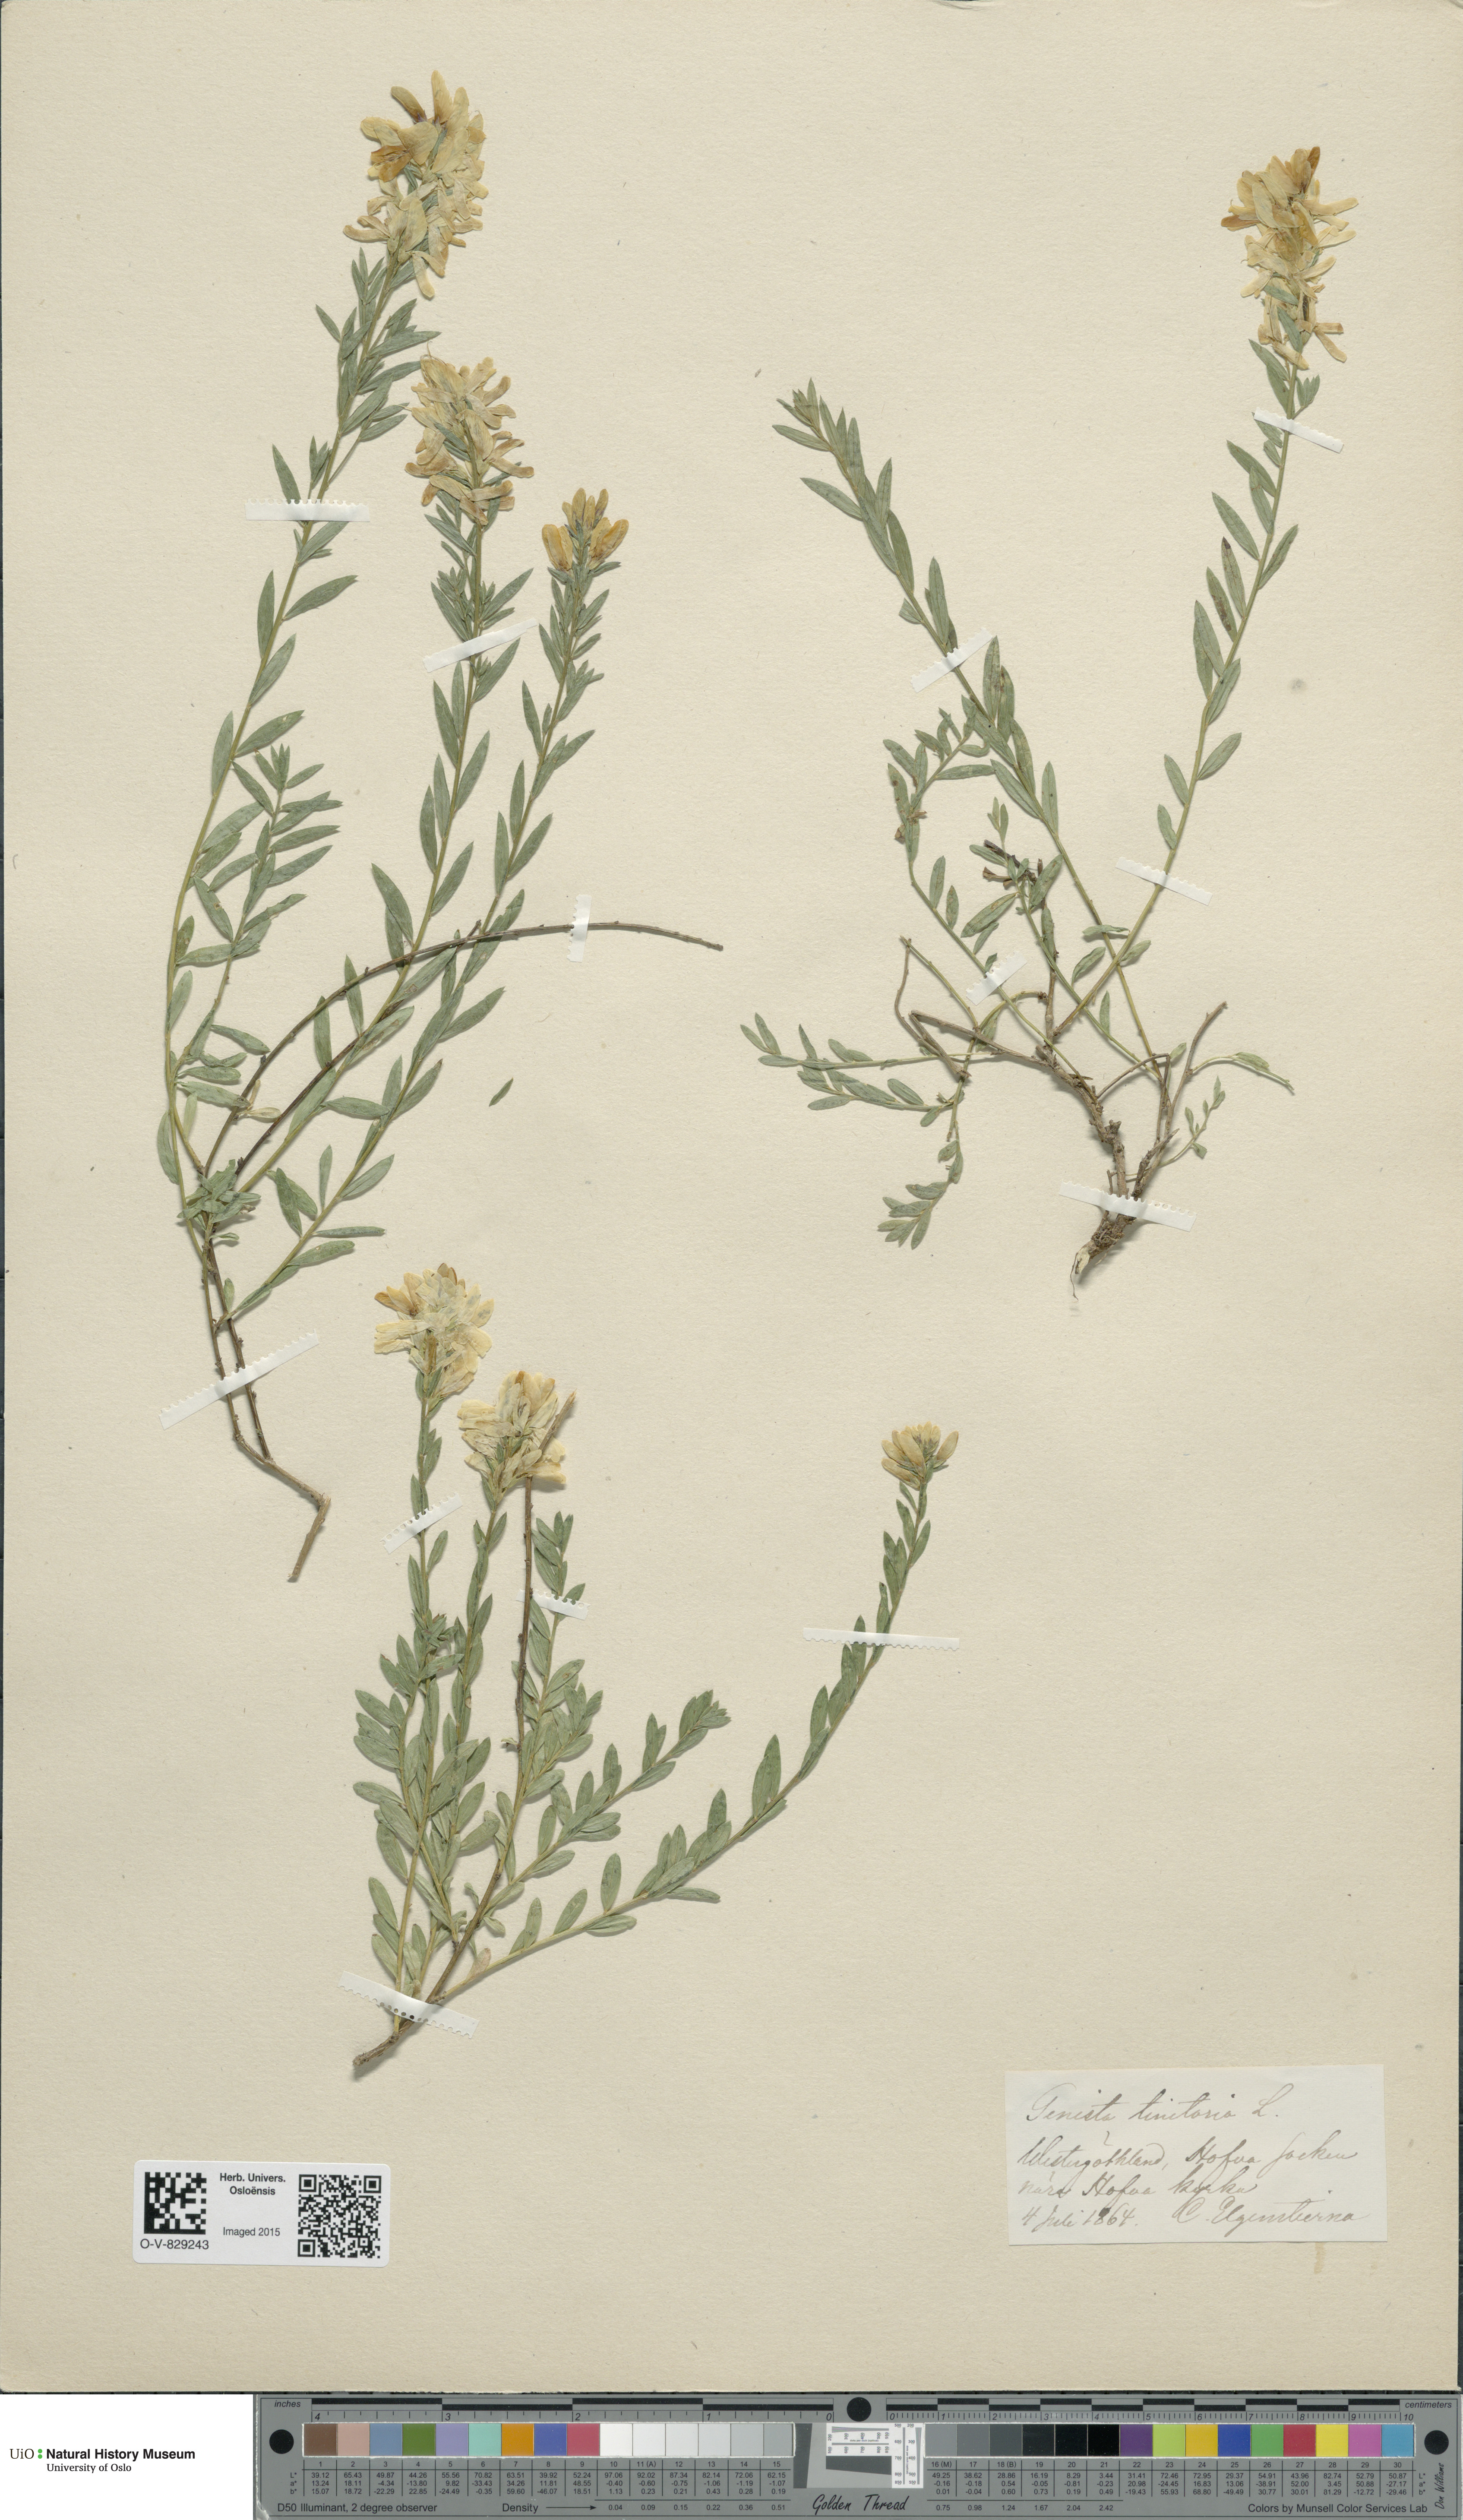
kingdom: Plantae
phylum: Tracheophyta
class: Magnoliopsida
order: Fabales
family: Fabaceae
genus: Genista
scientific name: Genista tinctoria
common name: Dyer's greenweed
